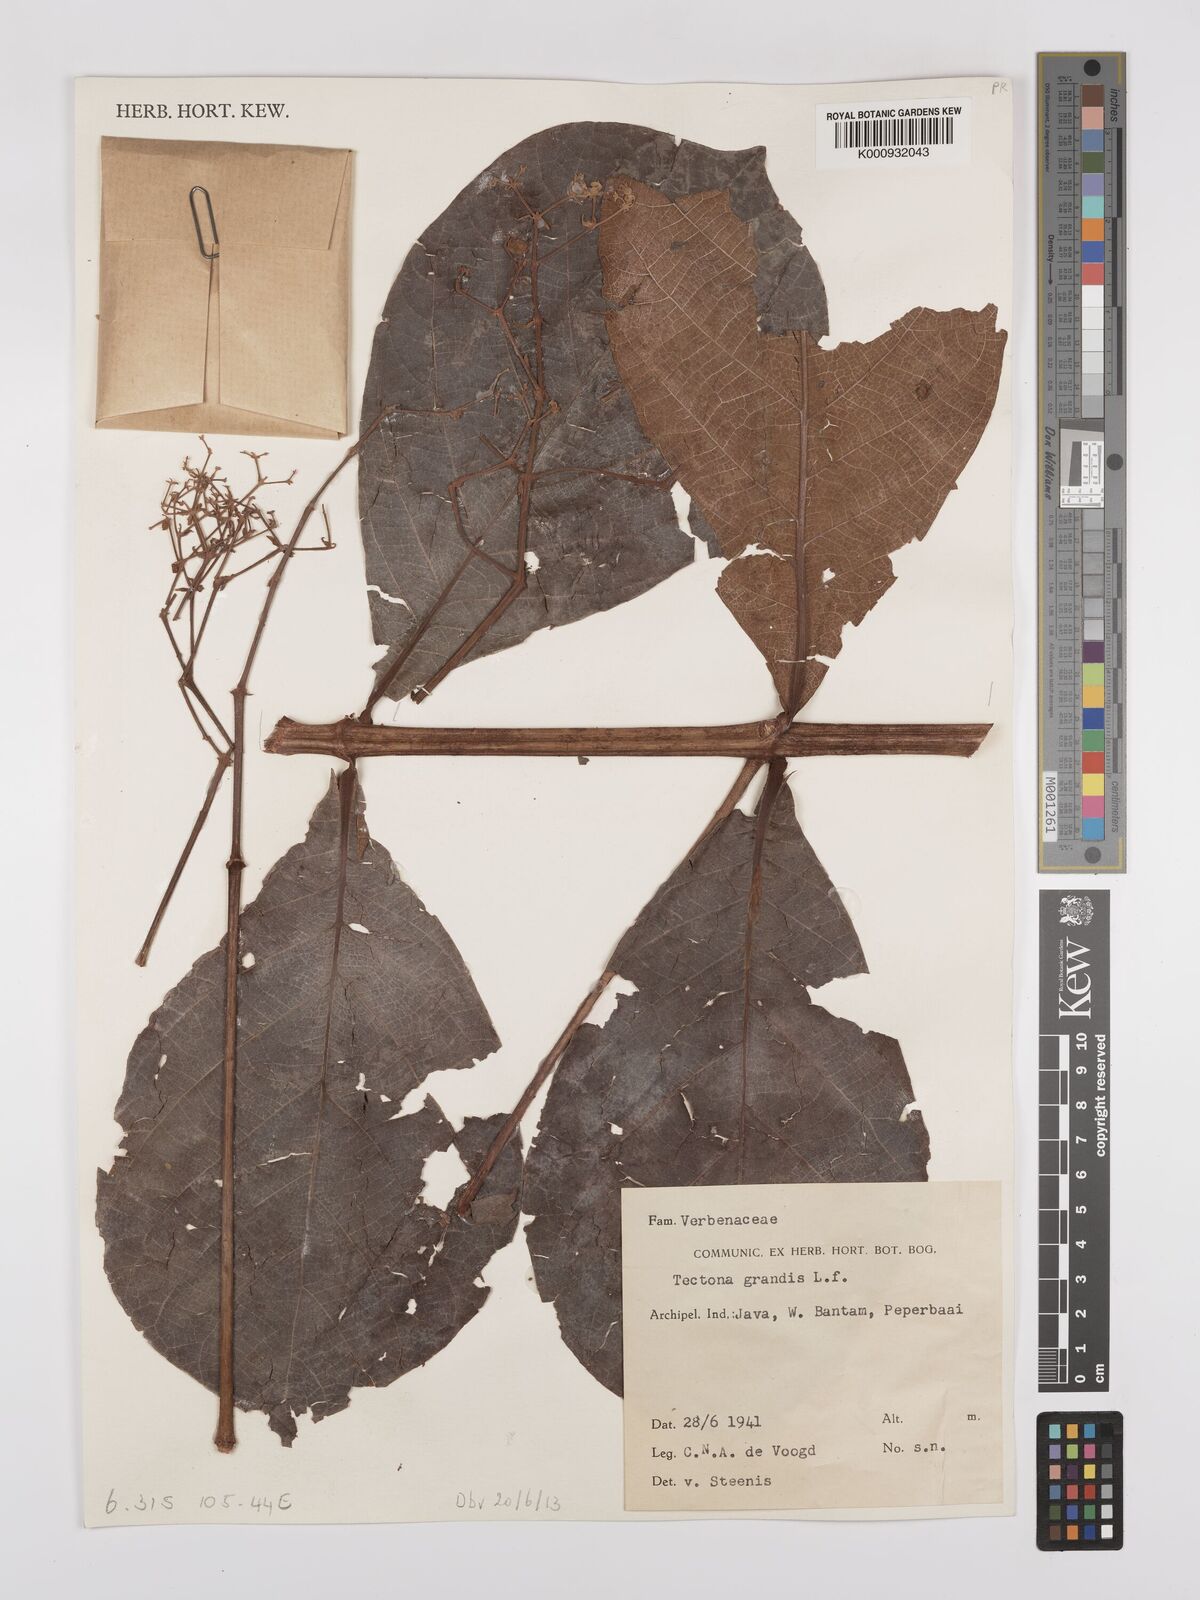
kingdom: Plantae
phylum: Tracheophyta
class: Magnoliopsida
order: Lamiales
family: Lamiaceae
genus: Tectona
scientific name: Tectona grandis
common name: Teak
